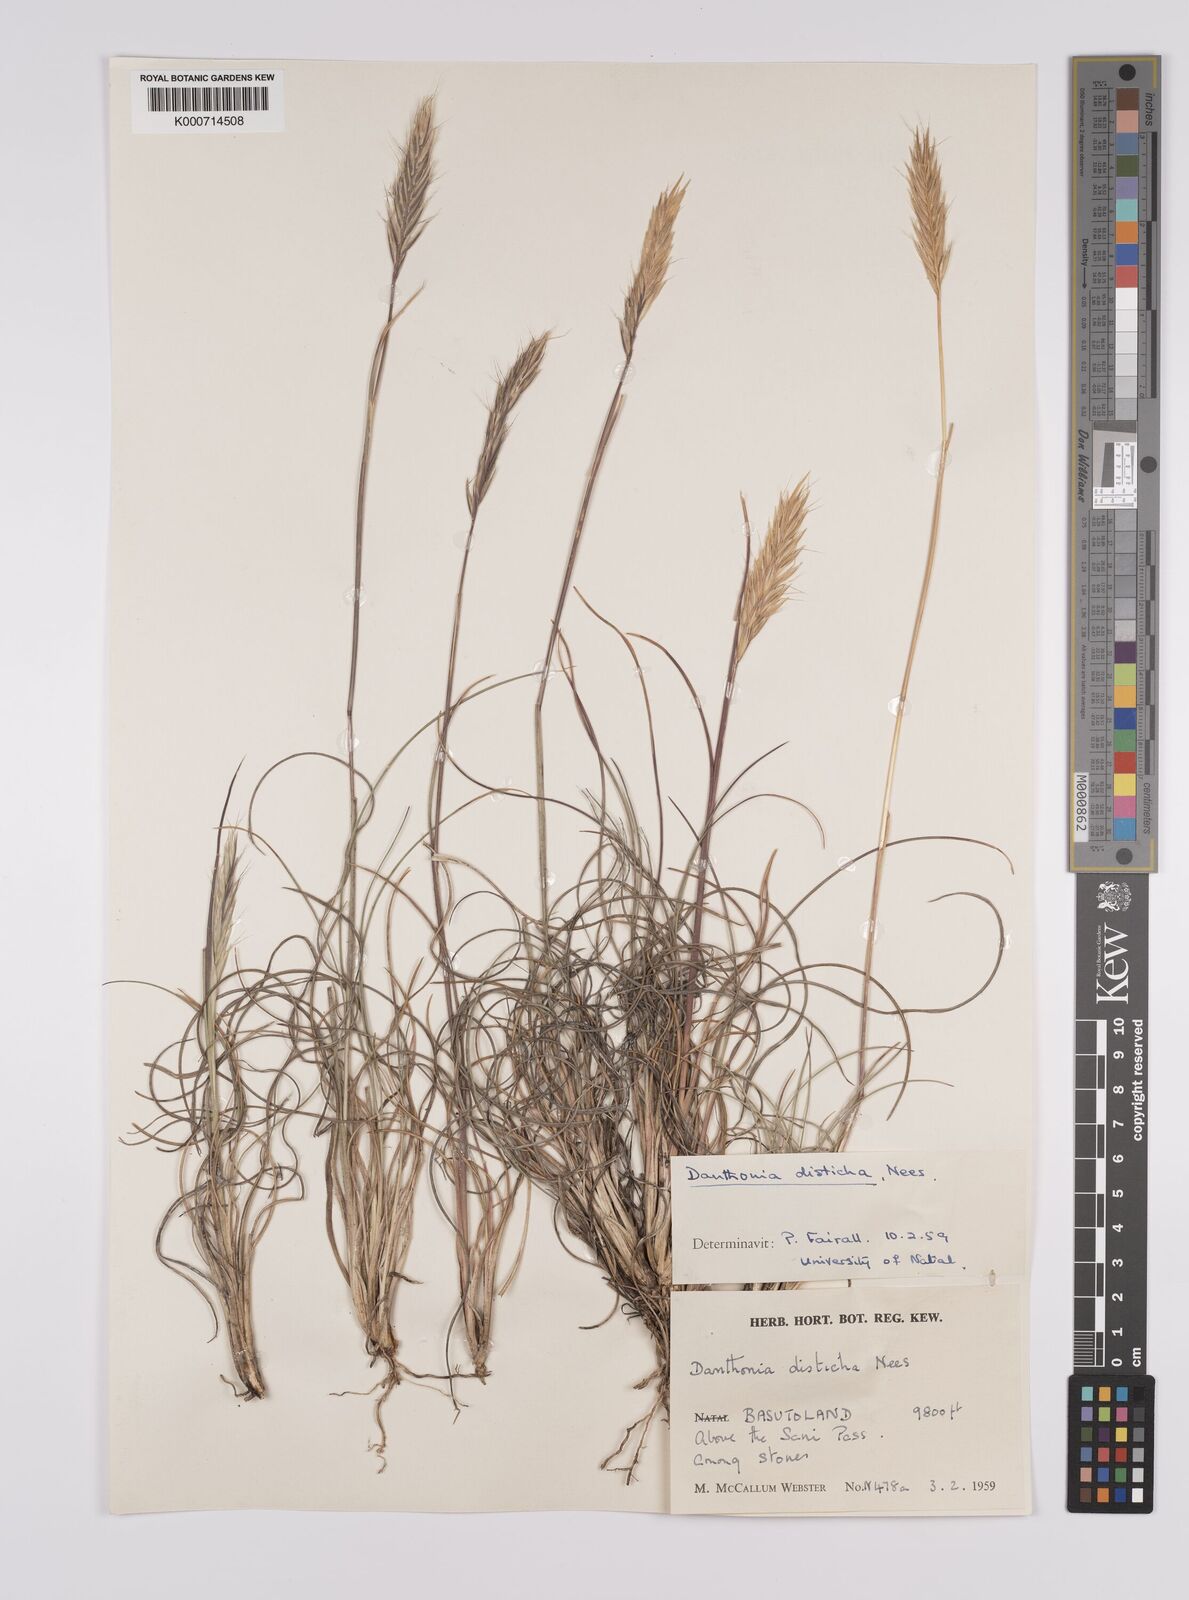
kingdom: Plantae
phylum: Tracheophyta
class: Liliopsida
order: Poales
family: Poaceae
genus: Tenaxia
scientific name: Tenaxia disticha
